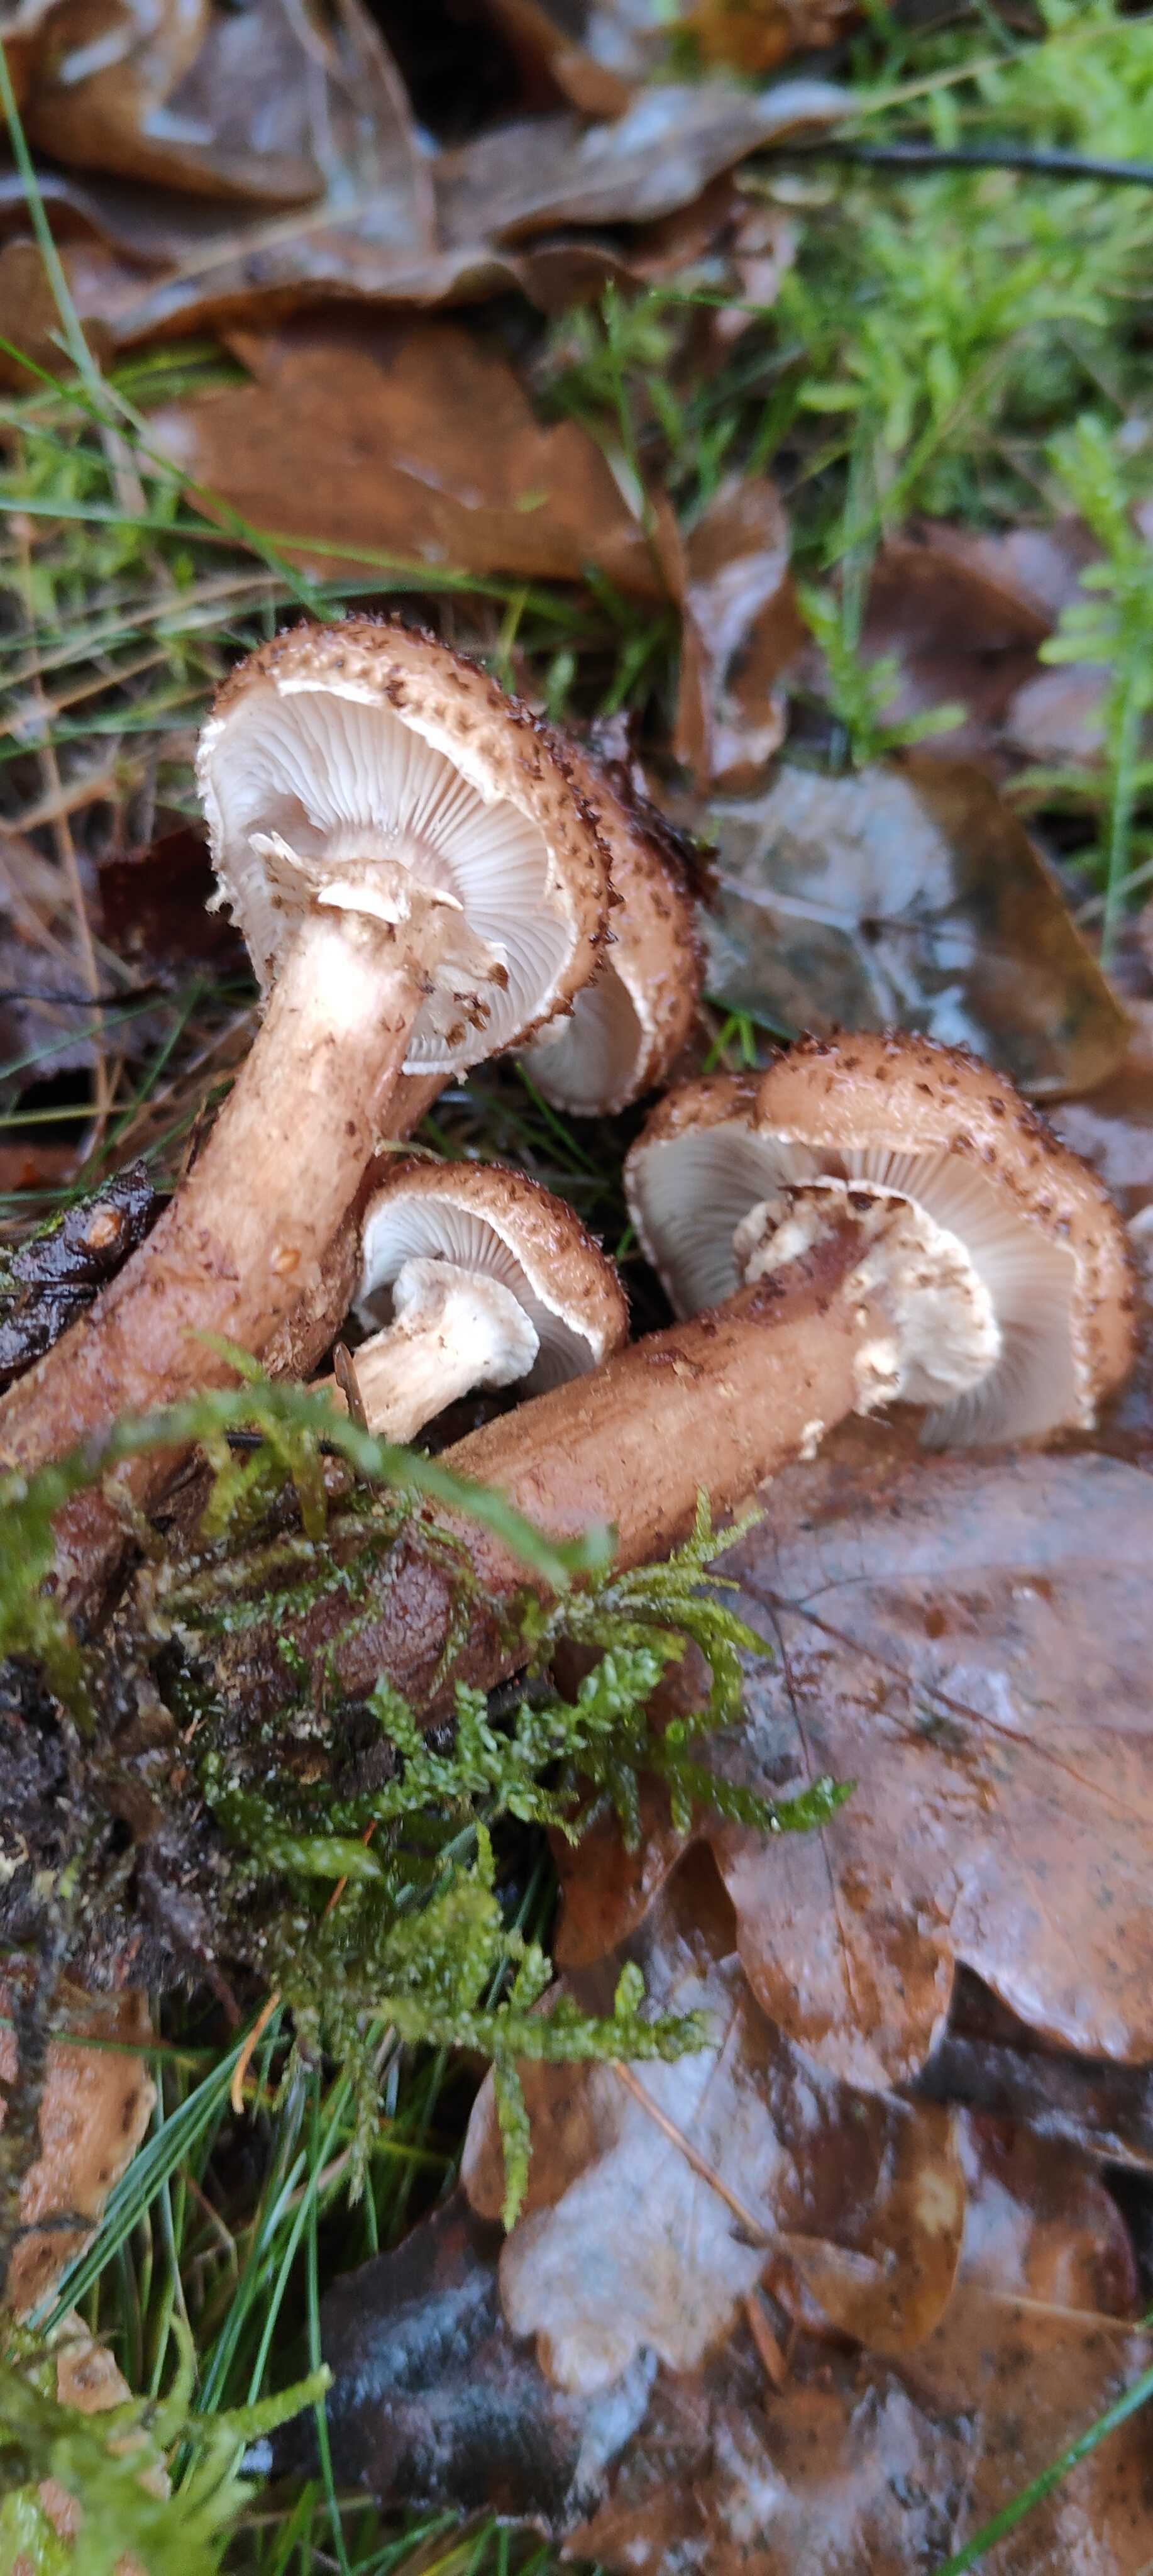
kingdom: Fungi
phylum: Basidiomycota
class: Agaricomycetes
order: Agaricales
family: Physalacriaceae
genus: Armillaria
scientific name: Armillaria ostoyae
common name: mørk honningsvamp
